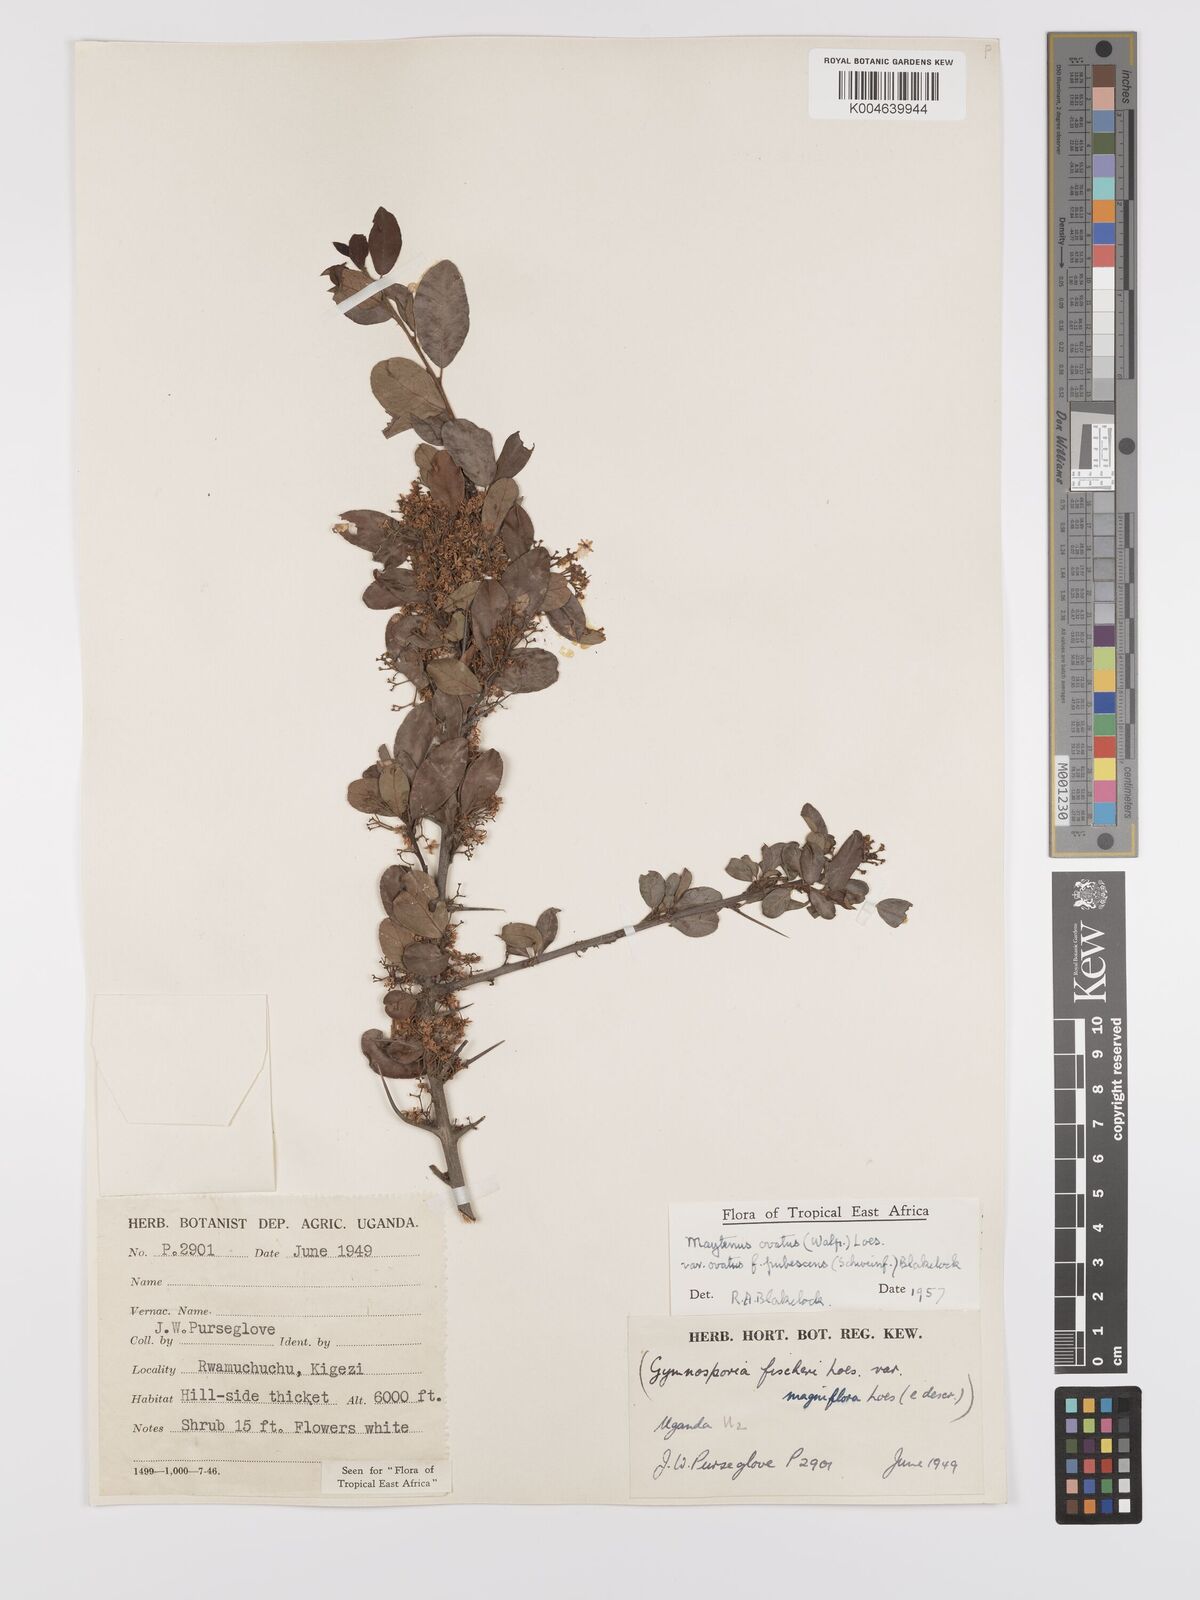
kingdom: Plantae
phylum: Tracheophyta
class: Magnoliopsida
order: Celastrales
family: Celastraceae
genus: Gymnosporia
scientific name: Gymnosporia
